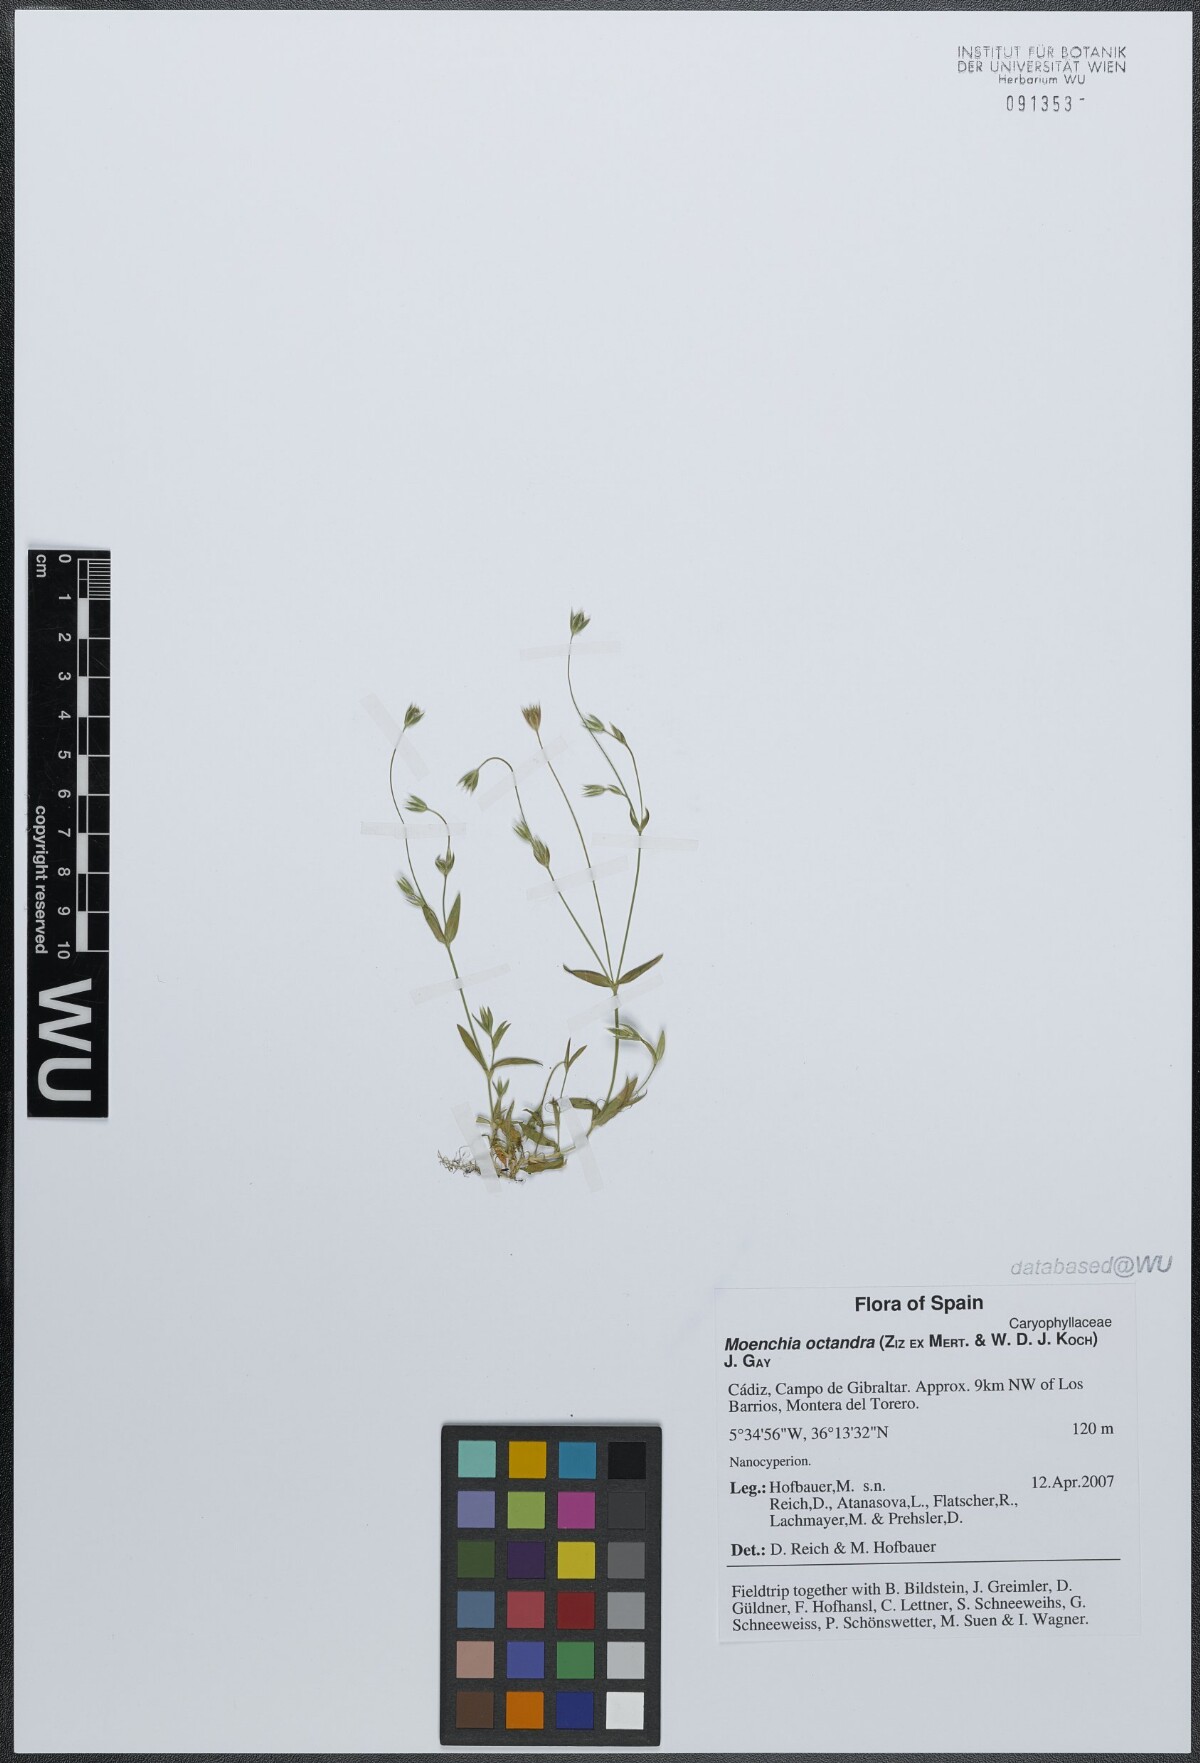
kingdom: Plantae
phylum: Tracheophyta
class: Magnoliopsida
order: Caryophyllales
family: Caryophyllaceae
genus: Moenchia
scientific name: Moenchia erecta
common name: Upright chickweed
